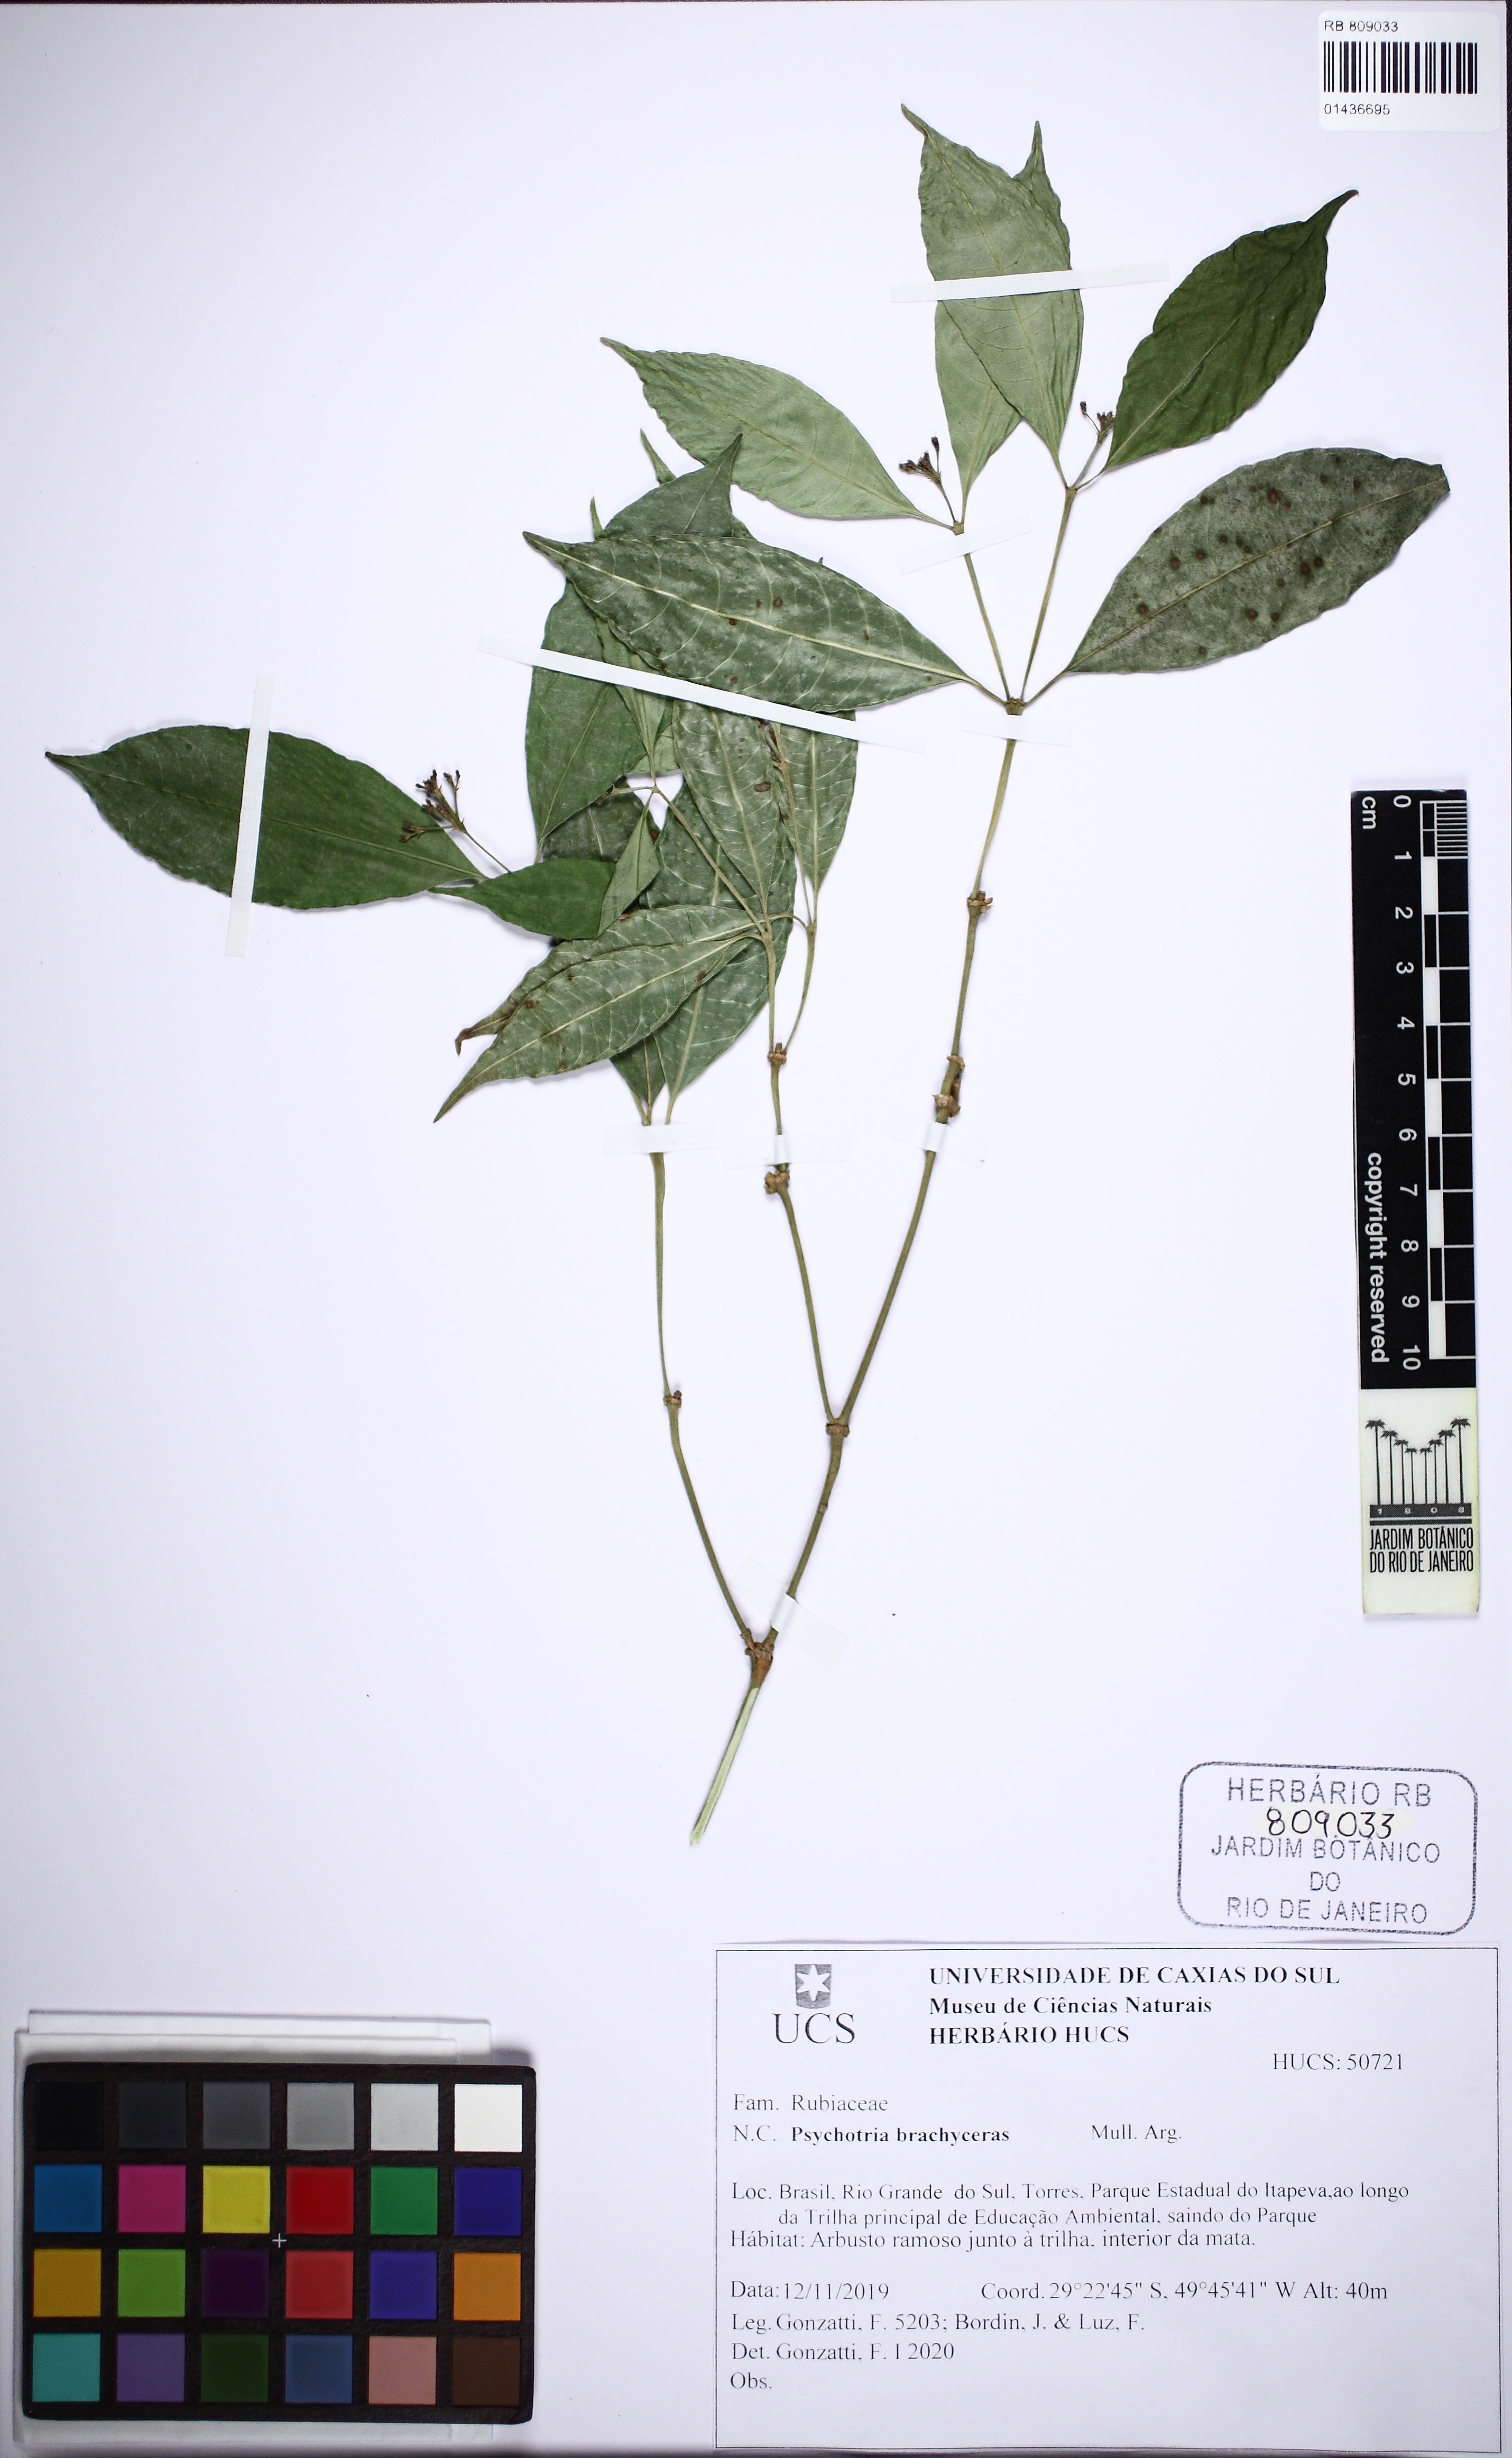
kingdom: Plantae
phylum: Tracheophyta
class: Magnoliopsida
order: Gentianales
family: Rubiaceae
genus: Psychotria
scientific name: Psychotria brachyceras
